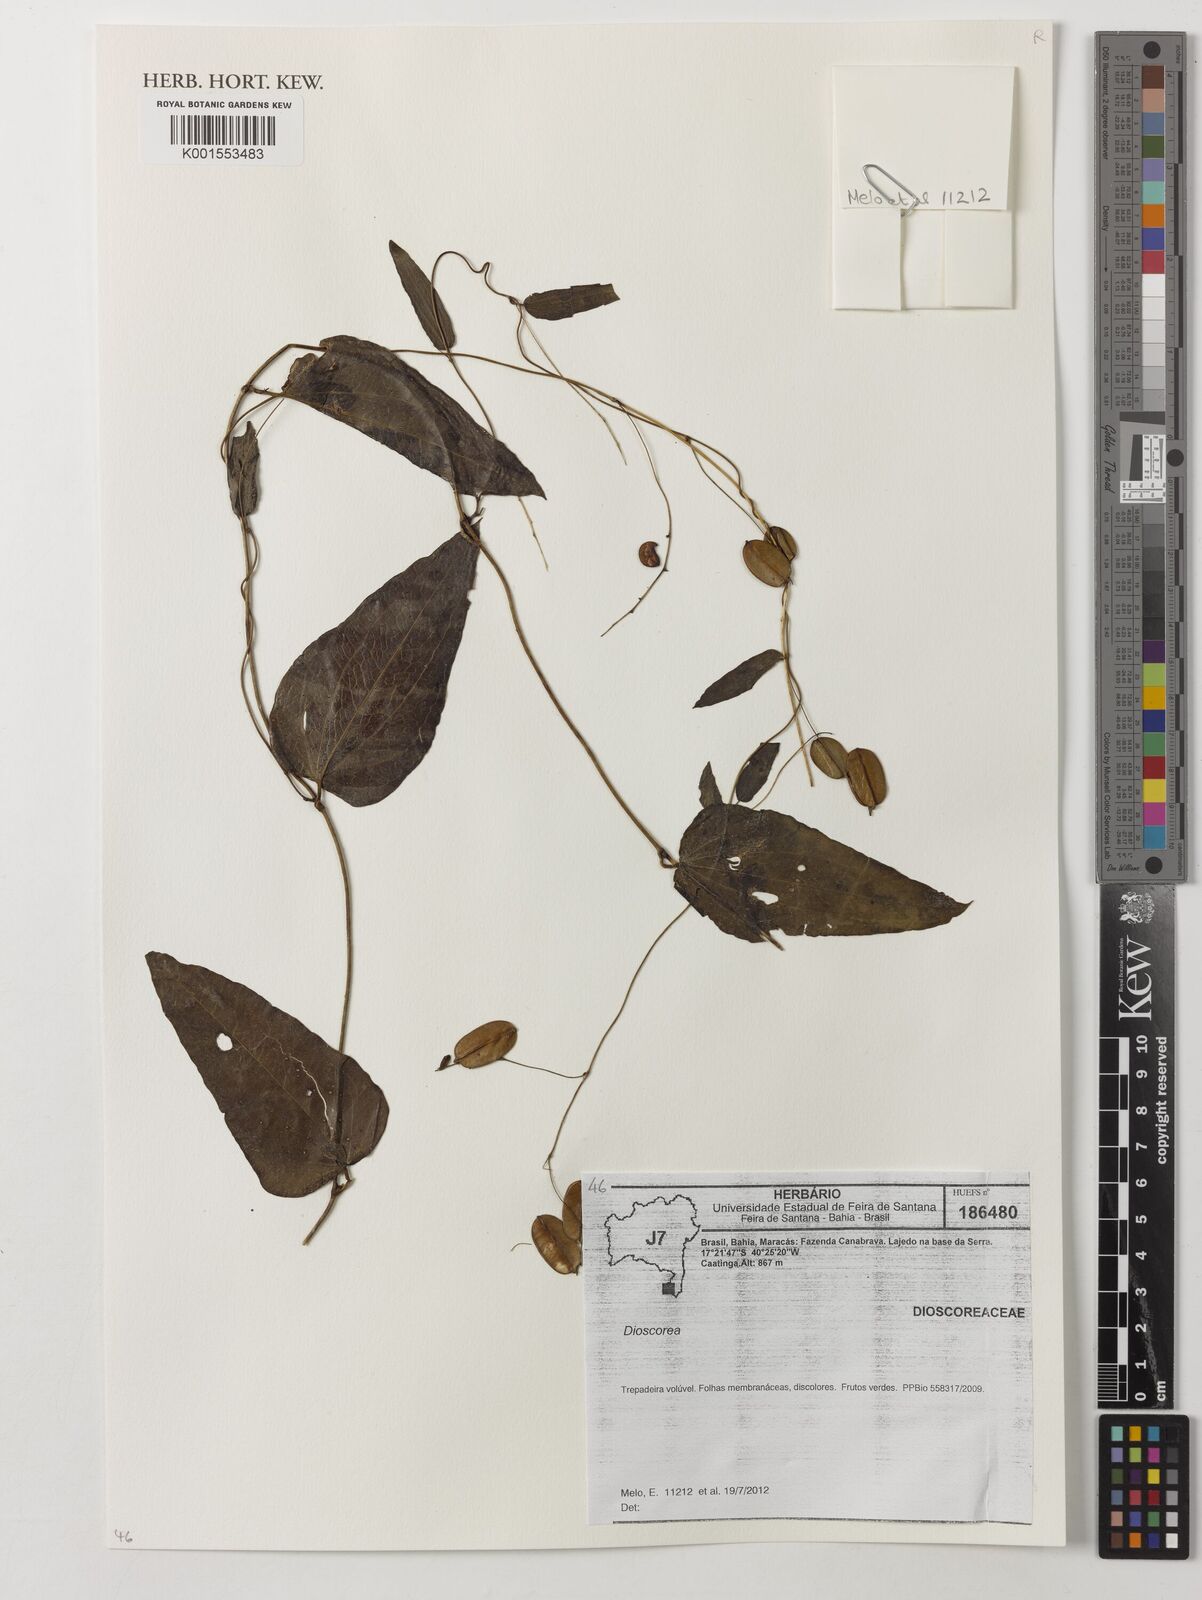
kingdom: Plantae
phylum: Tracheophyta
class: Liliopsida
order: Dioscoreales
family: Dioscoreaceae
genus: Dioscorea
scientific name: Dioscorea
